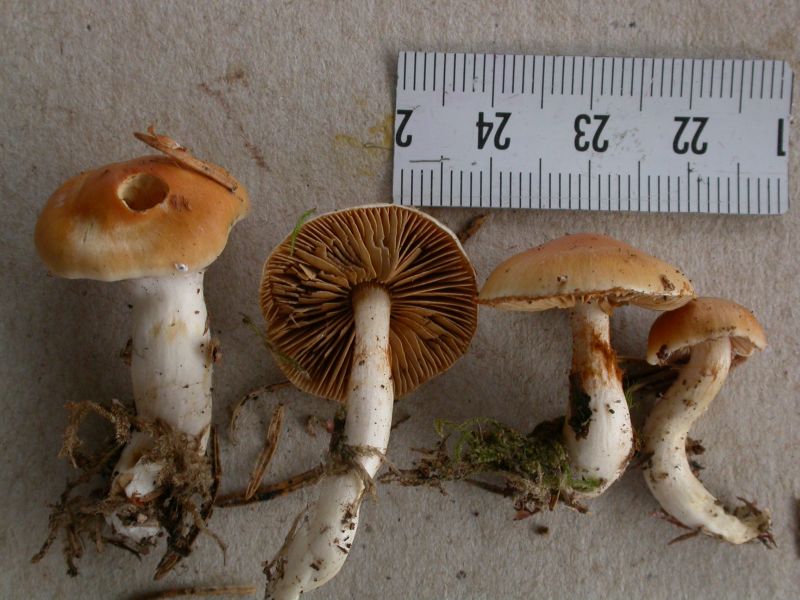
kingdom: Fungi
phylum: Basidiomycota
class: Agaricomycetes
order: Agaricales
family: Cortinariaceae
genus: Thaxterogaster
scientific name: Thaxterogaster pluvius
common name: hvidgul slørhat
